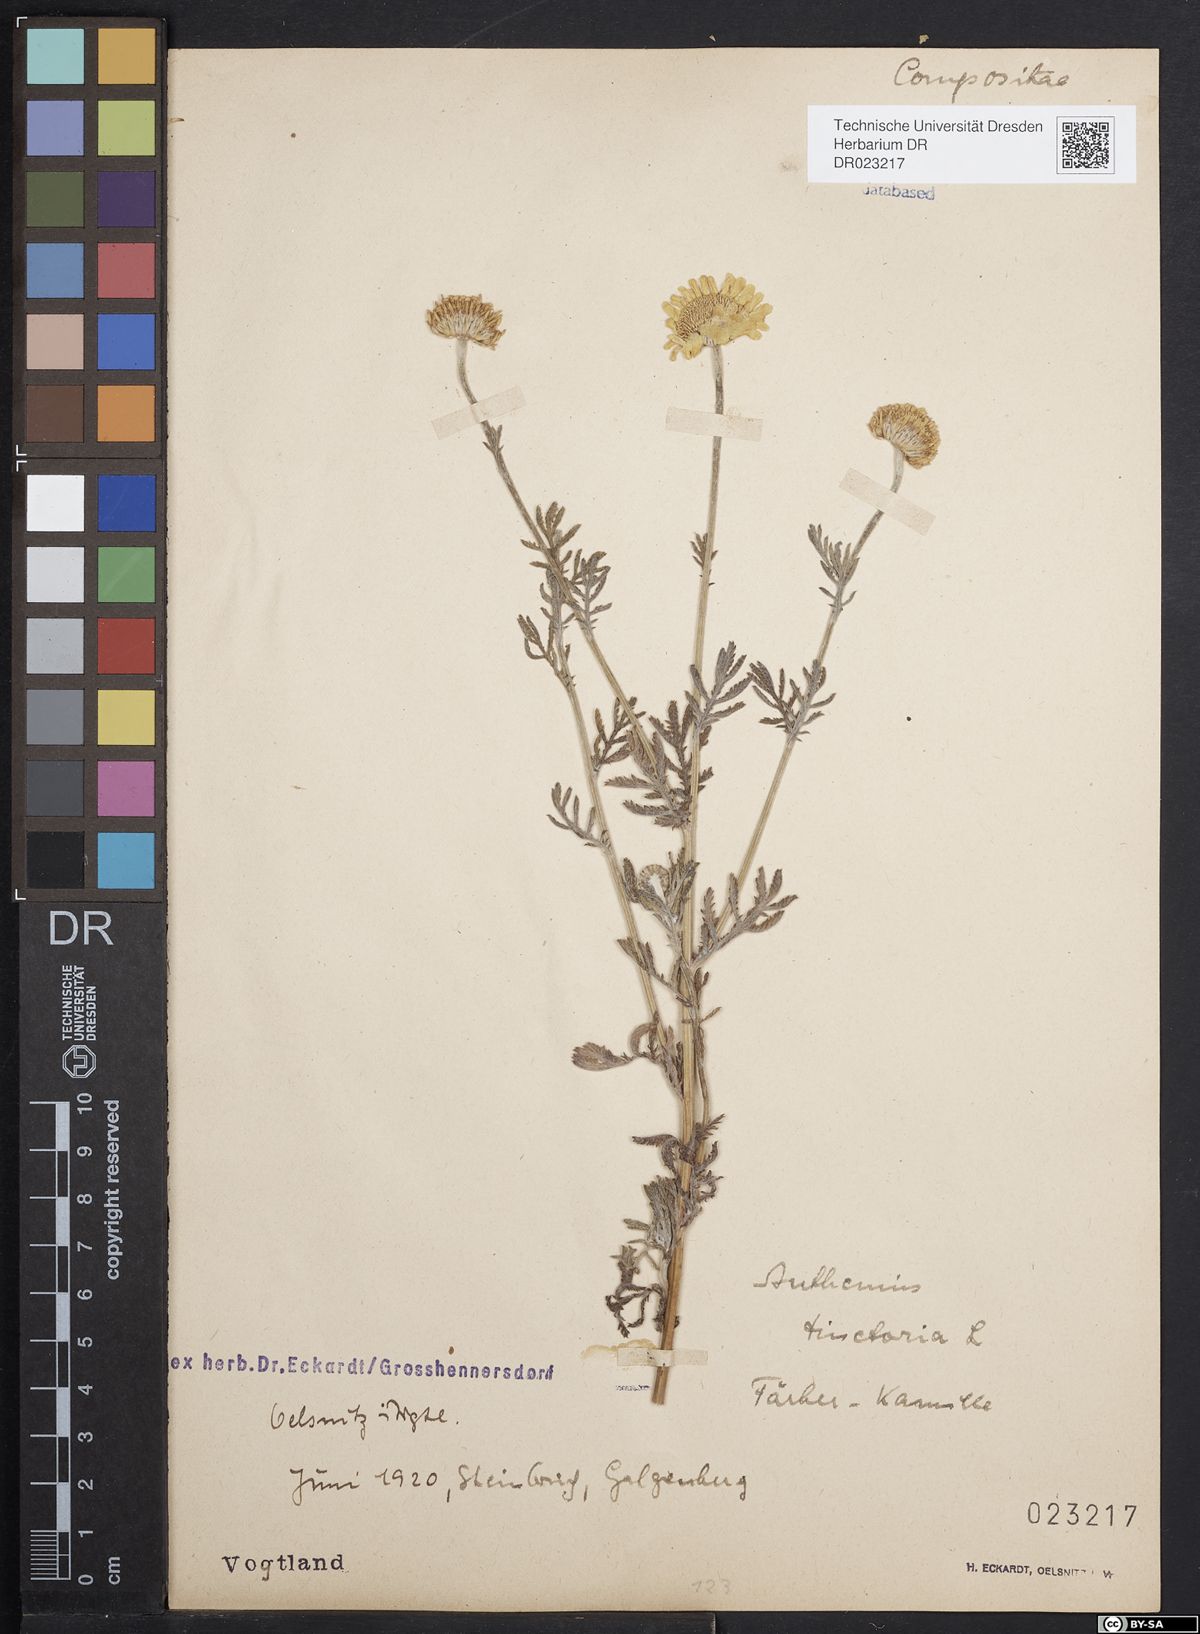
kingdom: Plantae
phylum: Tracheophyta
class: Magnoliopsida
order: Asterales
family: Asteraceae
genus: Cota
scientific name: Cota tinctoria
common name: Golden chamomile
